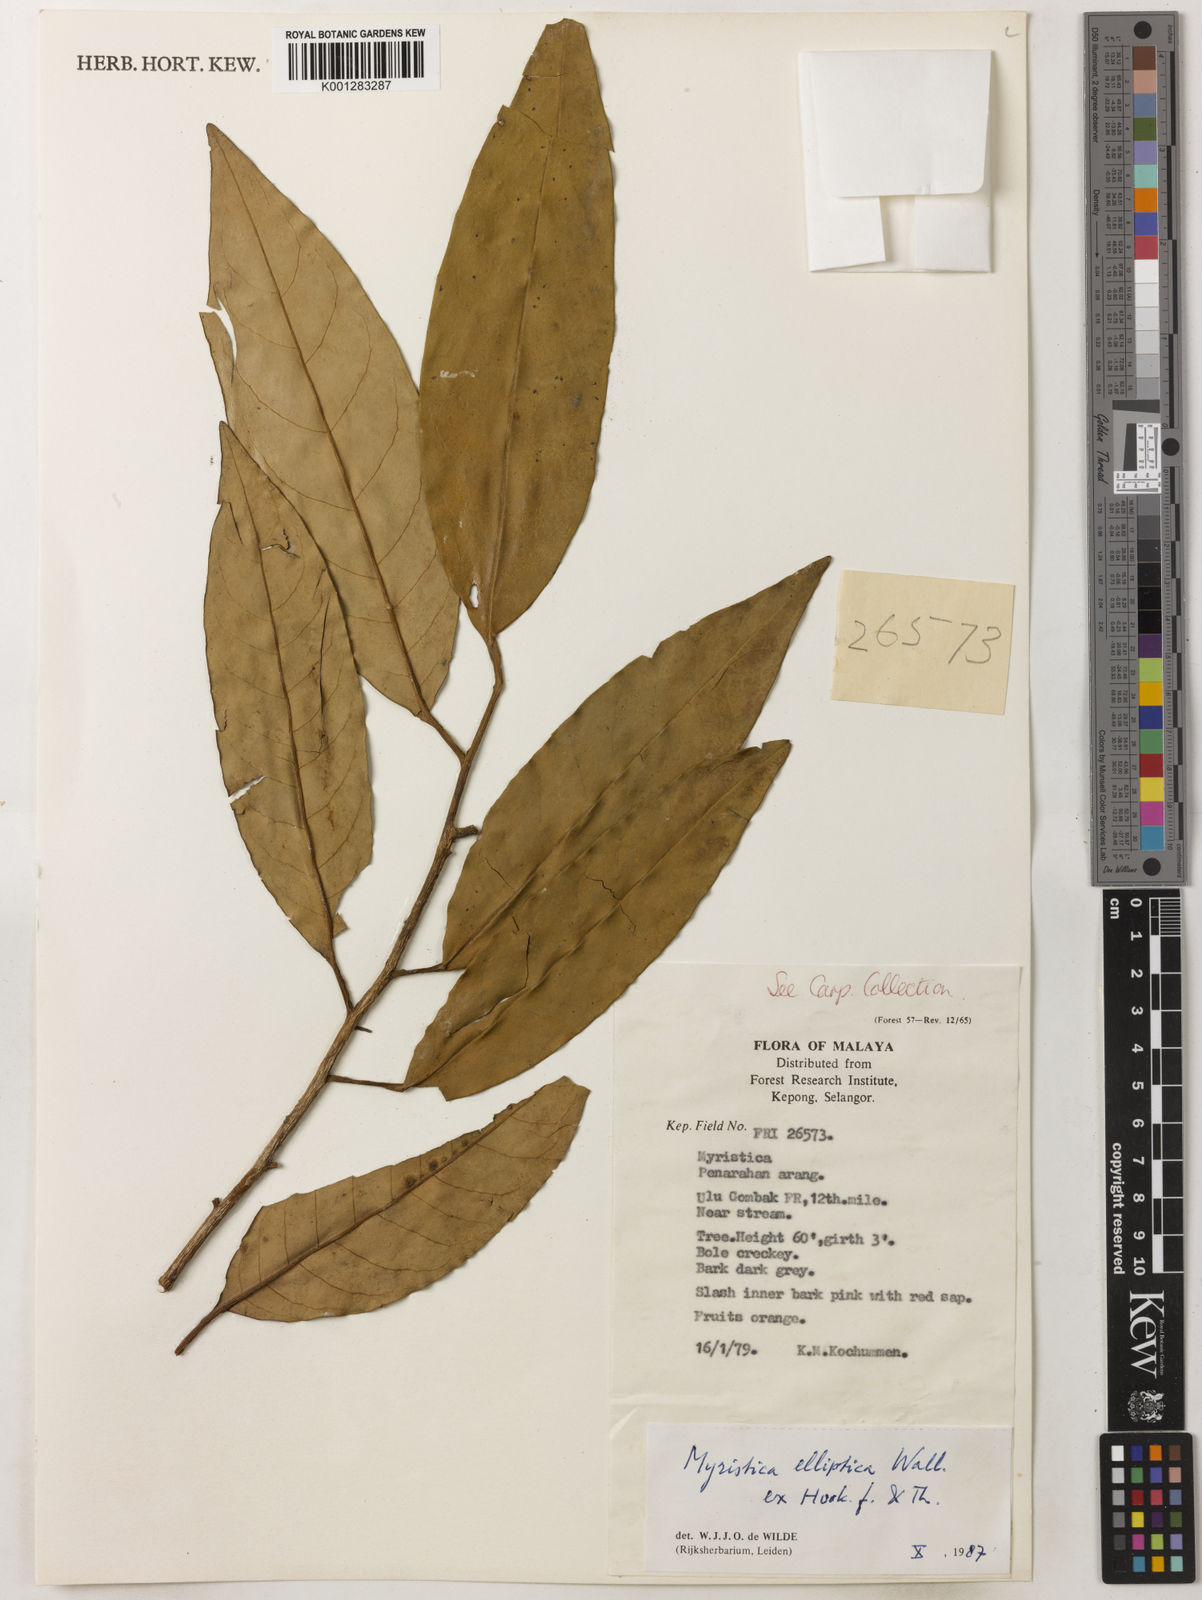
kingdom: Plantae
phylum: Tracheophyta
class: Magnoliopsida
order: Magnoliales
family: Myristicaceae
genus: Myristica
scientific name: Myristica elliptica
